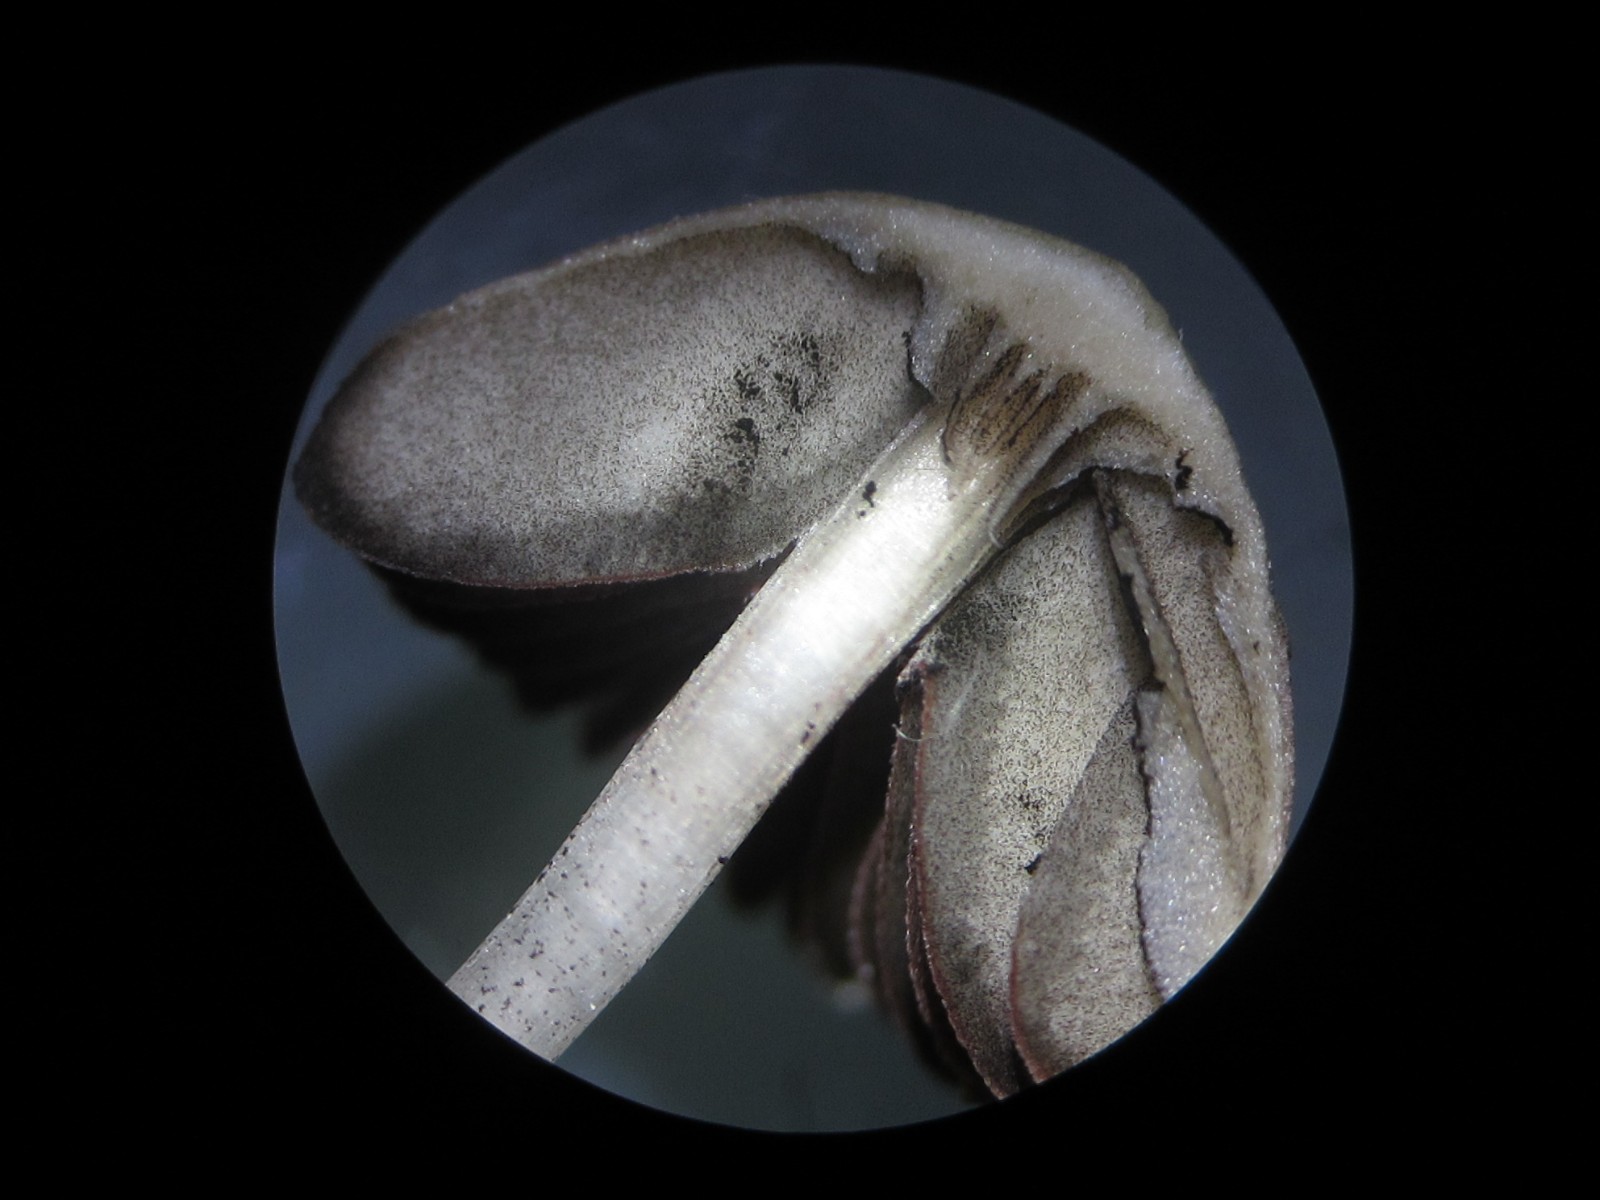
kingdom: Fungi
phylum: Basidiomycota
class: Agaricomycetes
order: Agaricales
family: Psathyrellaceae
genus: Psathyrella
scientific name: Psathyrella microrhiza
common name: rod-mørkhat
